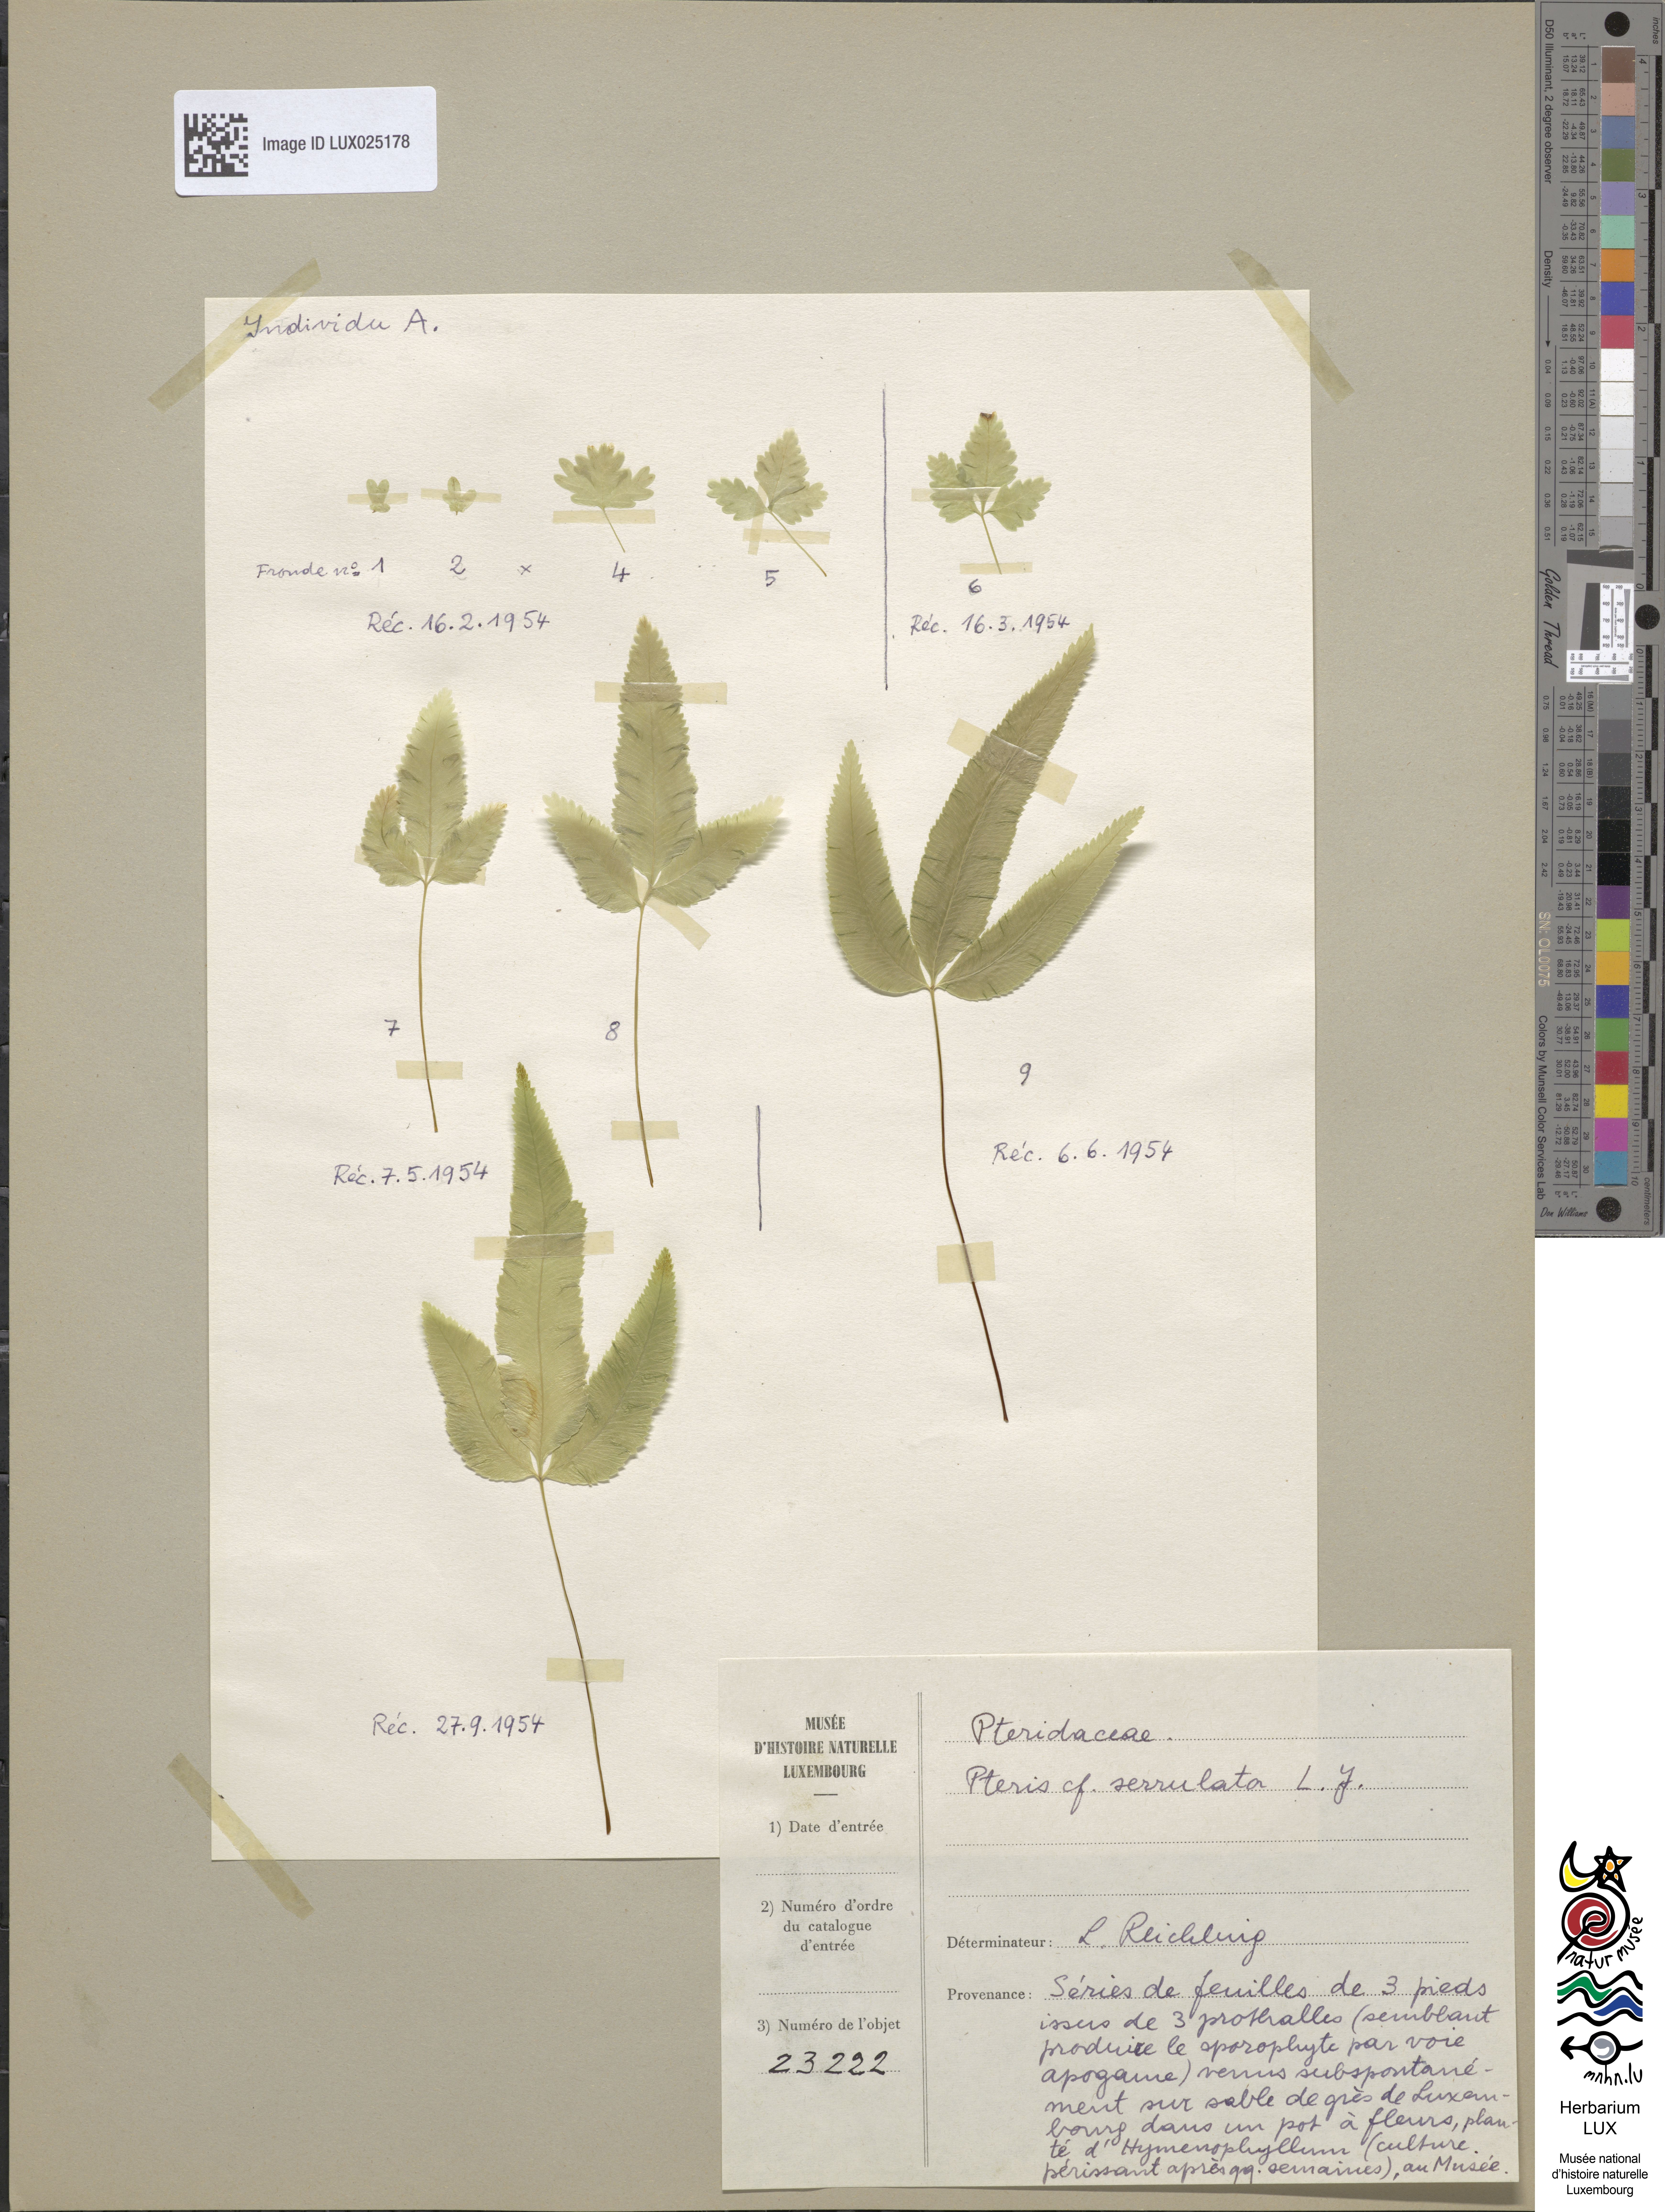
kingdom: Plantae
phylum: Tracheophyta
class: Polypodiopsida
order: Polypodiales
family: Pteridaceae
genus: Pteris
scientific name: Pteris multifida
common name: Spider brake
